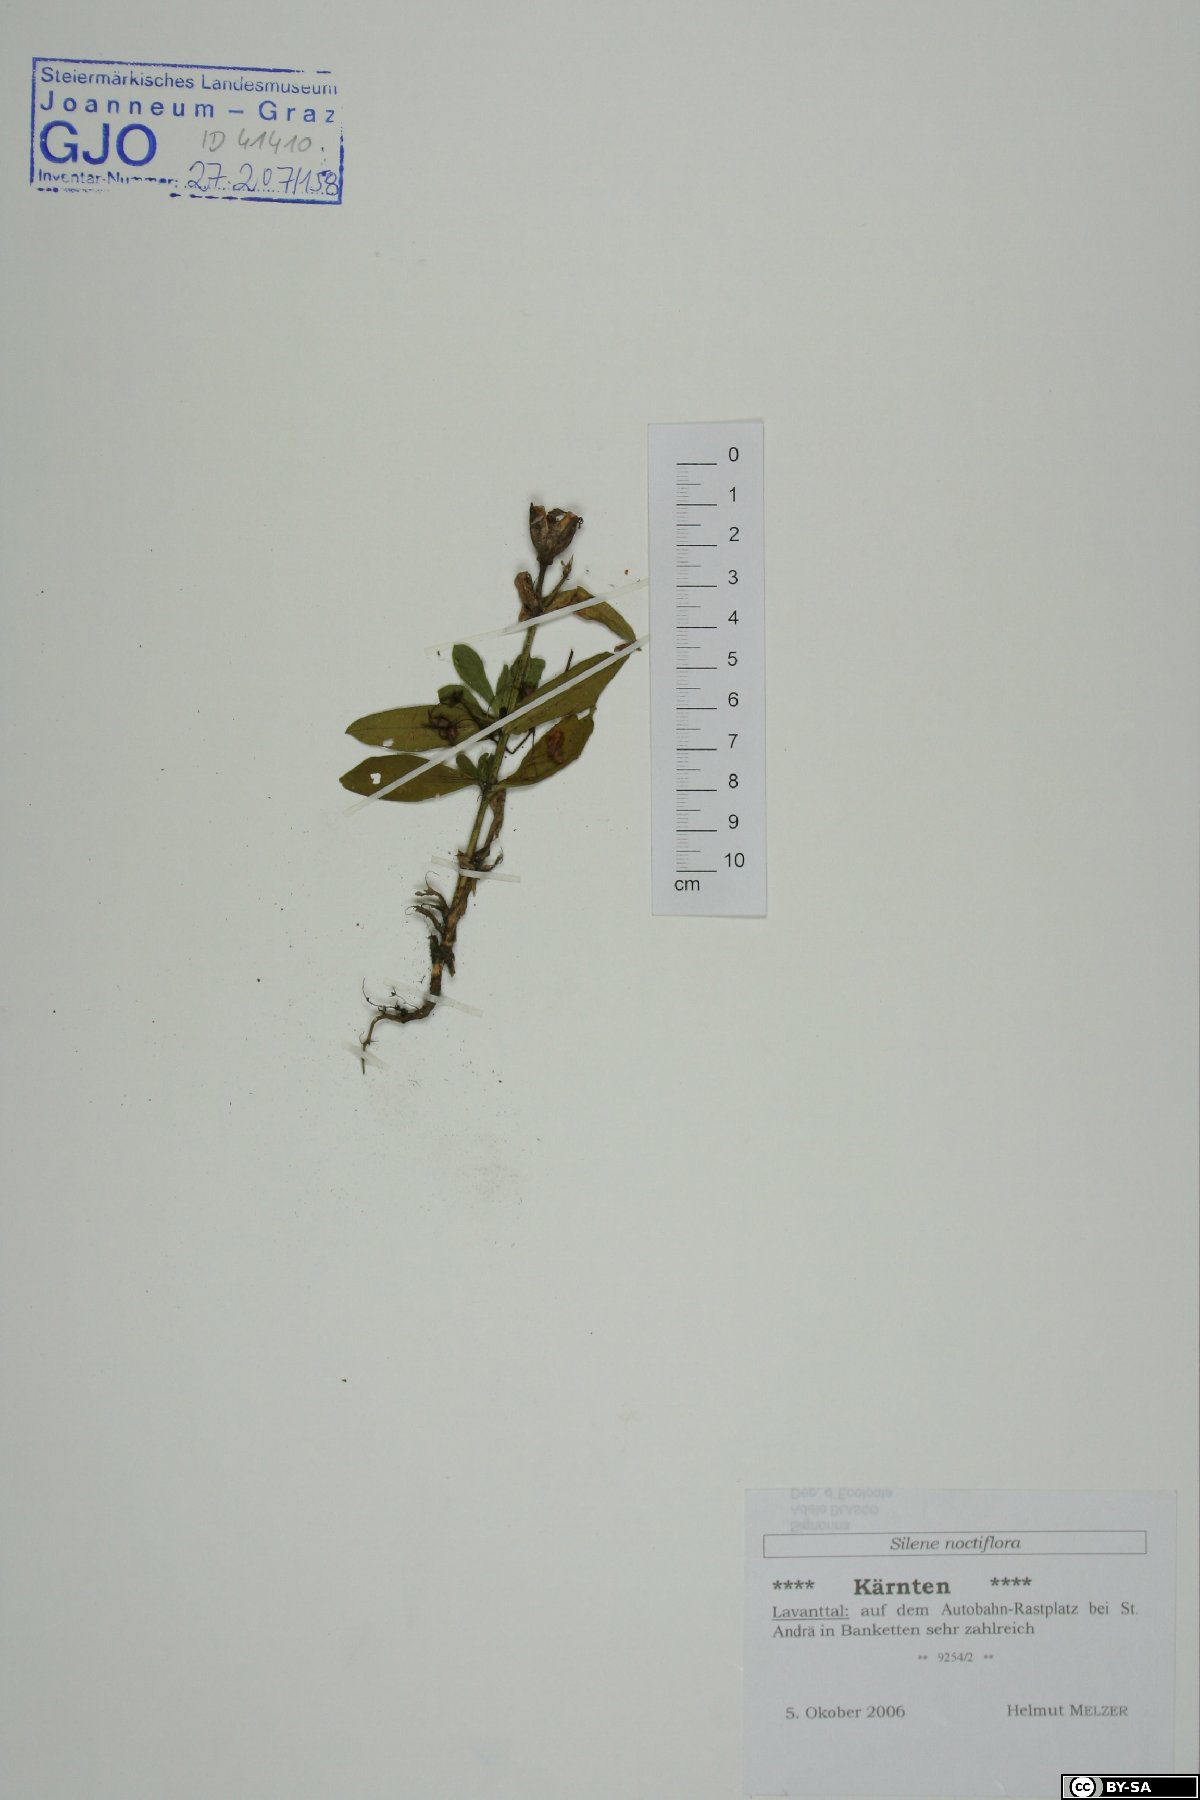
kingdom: Plantae
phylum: Tracheophyta
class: Magnoliopsida
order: Caryophyllales
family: Caryophyllaceae
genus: Silene
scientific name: Silene noctiflora
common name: Night-flowering catchfly
